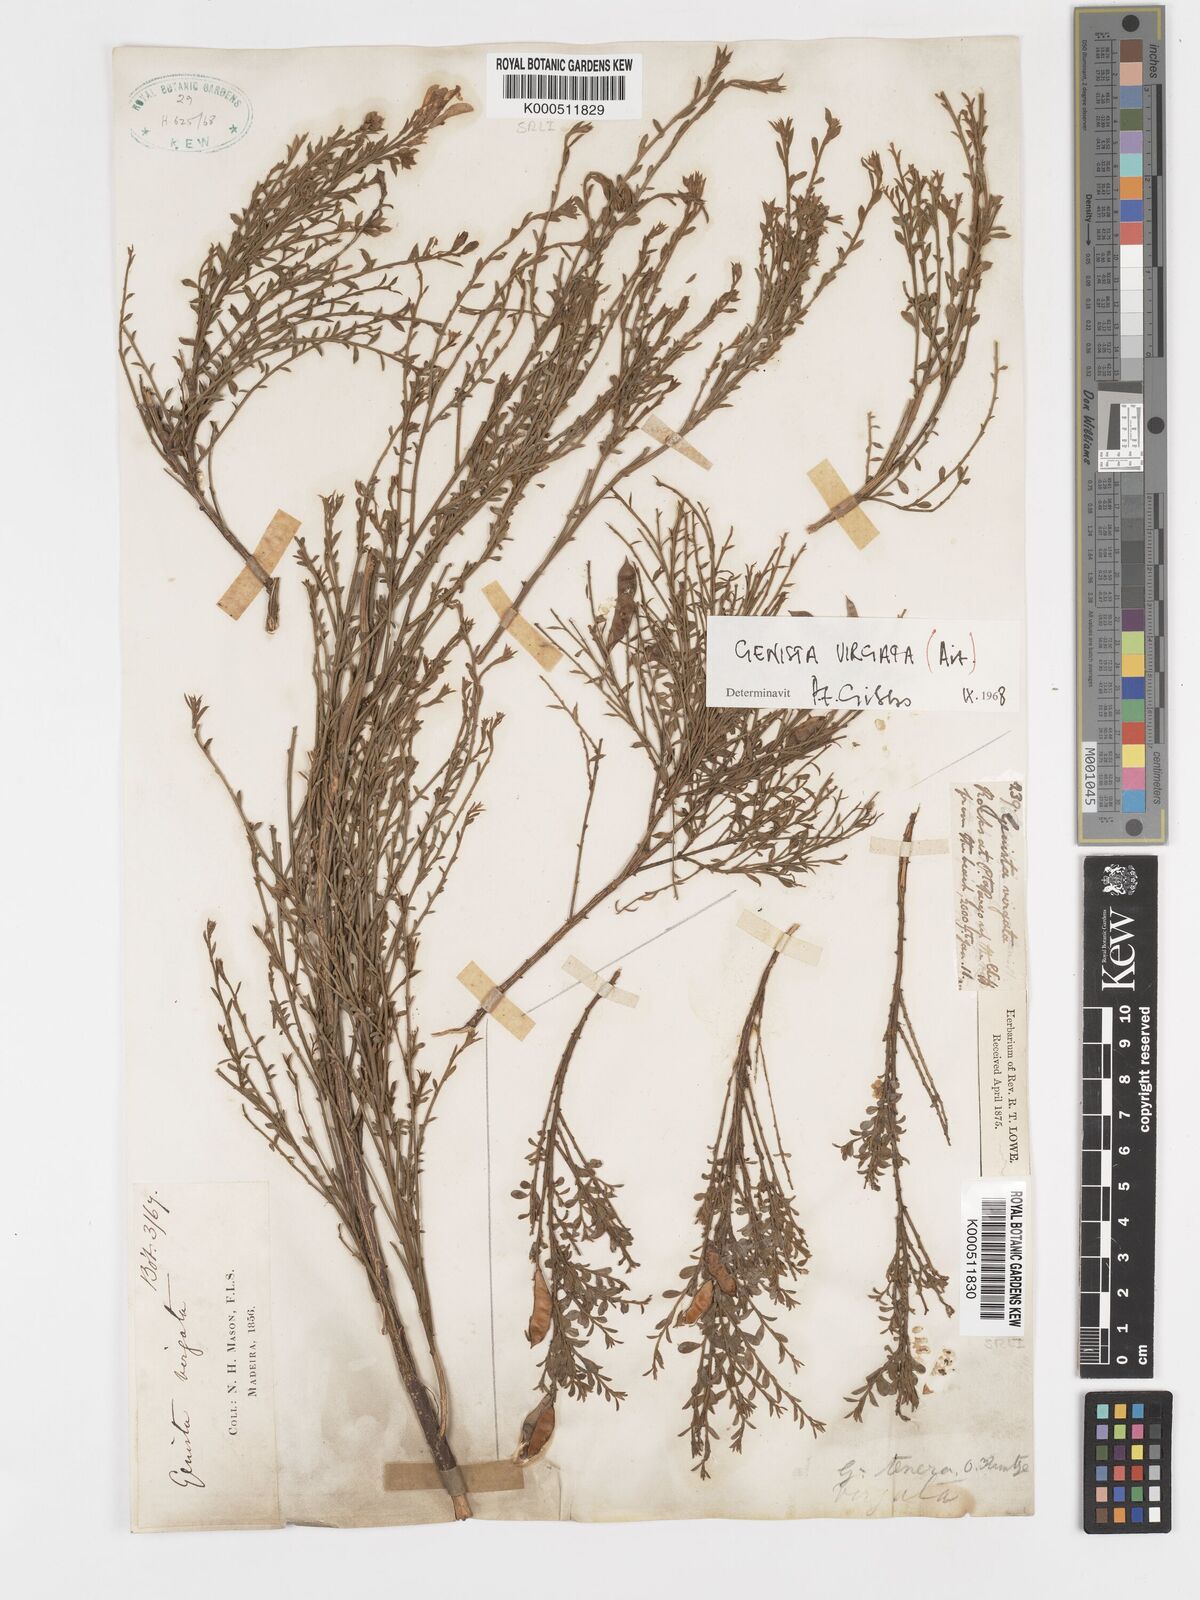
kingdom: Plantae
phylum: Tracheophyta
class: Magnoliopsida
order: Fabales
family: Fabaceae
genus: Genista
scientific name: Genista tenera
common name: Madeira broom
